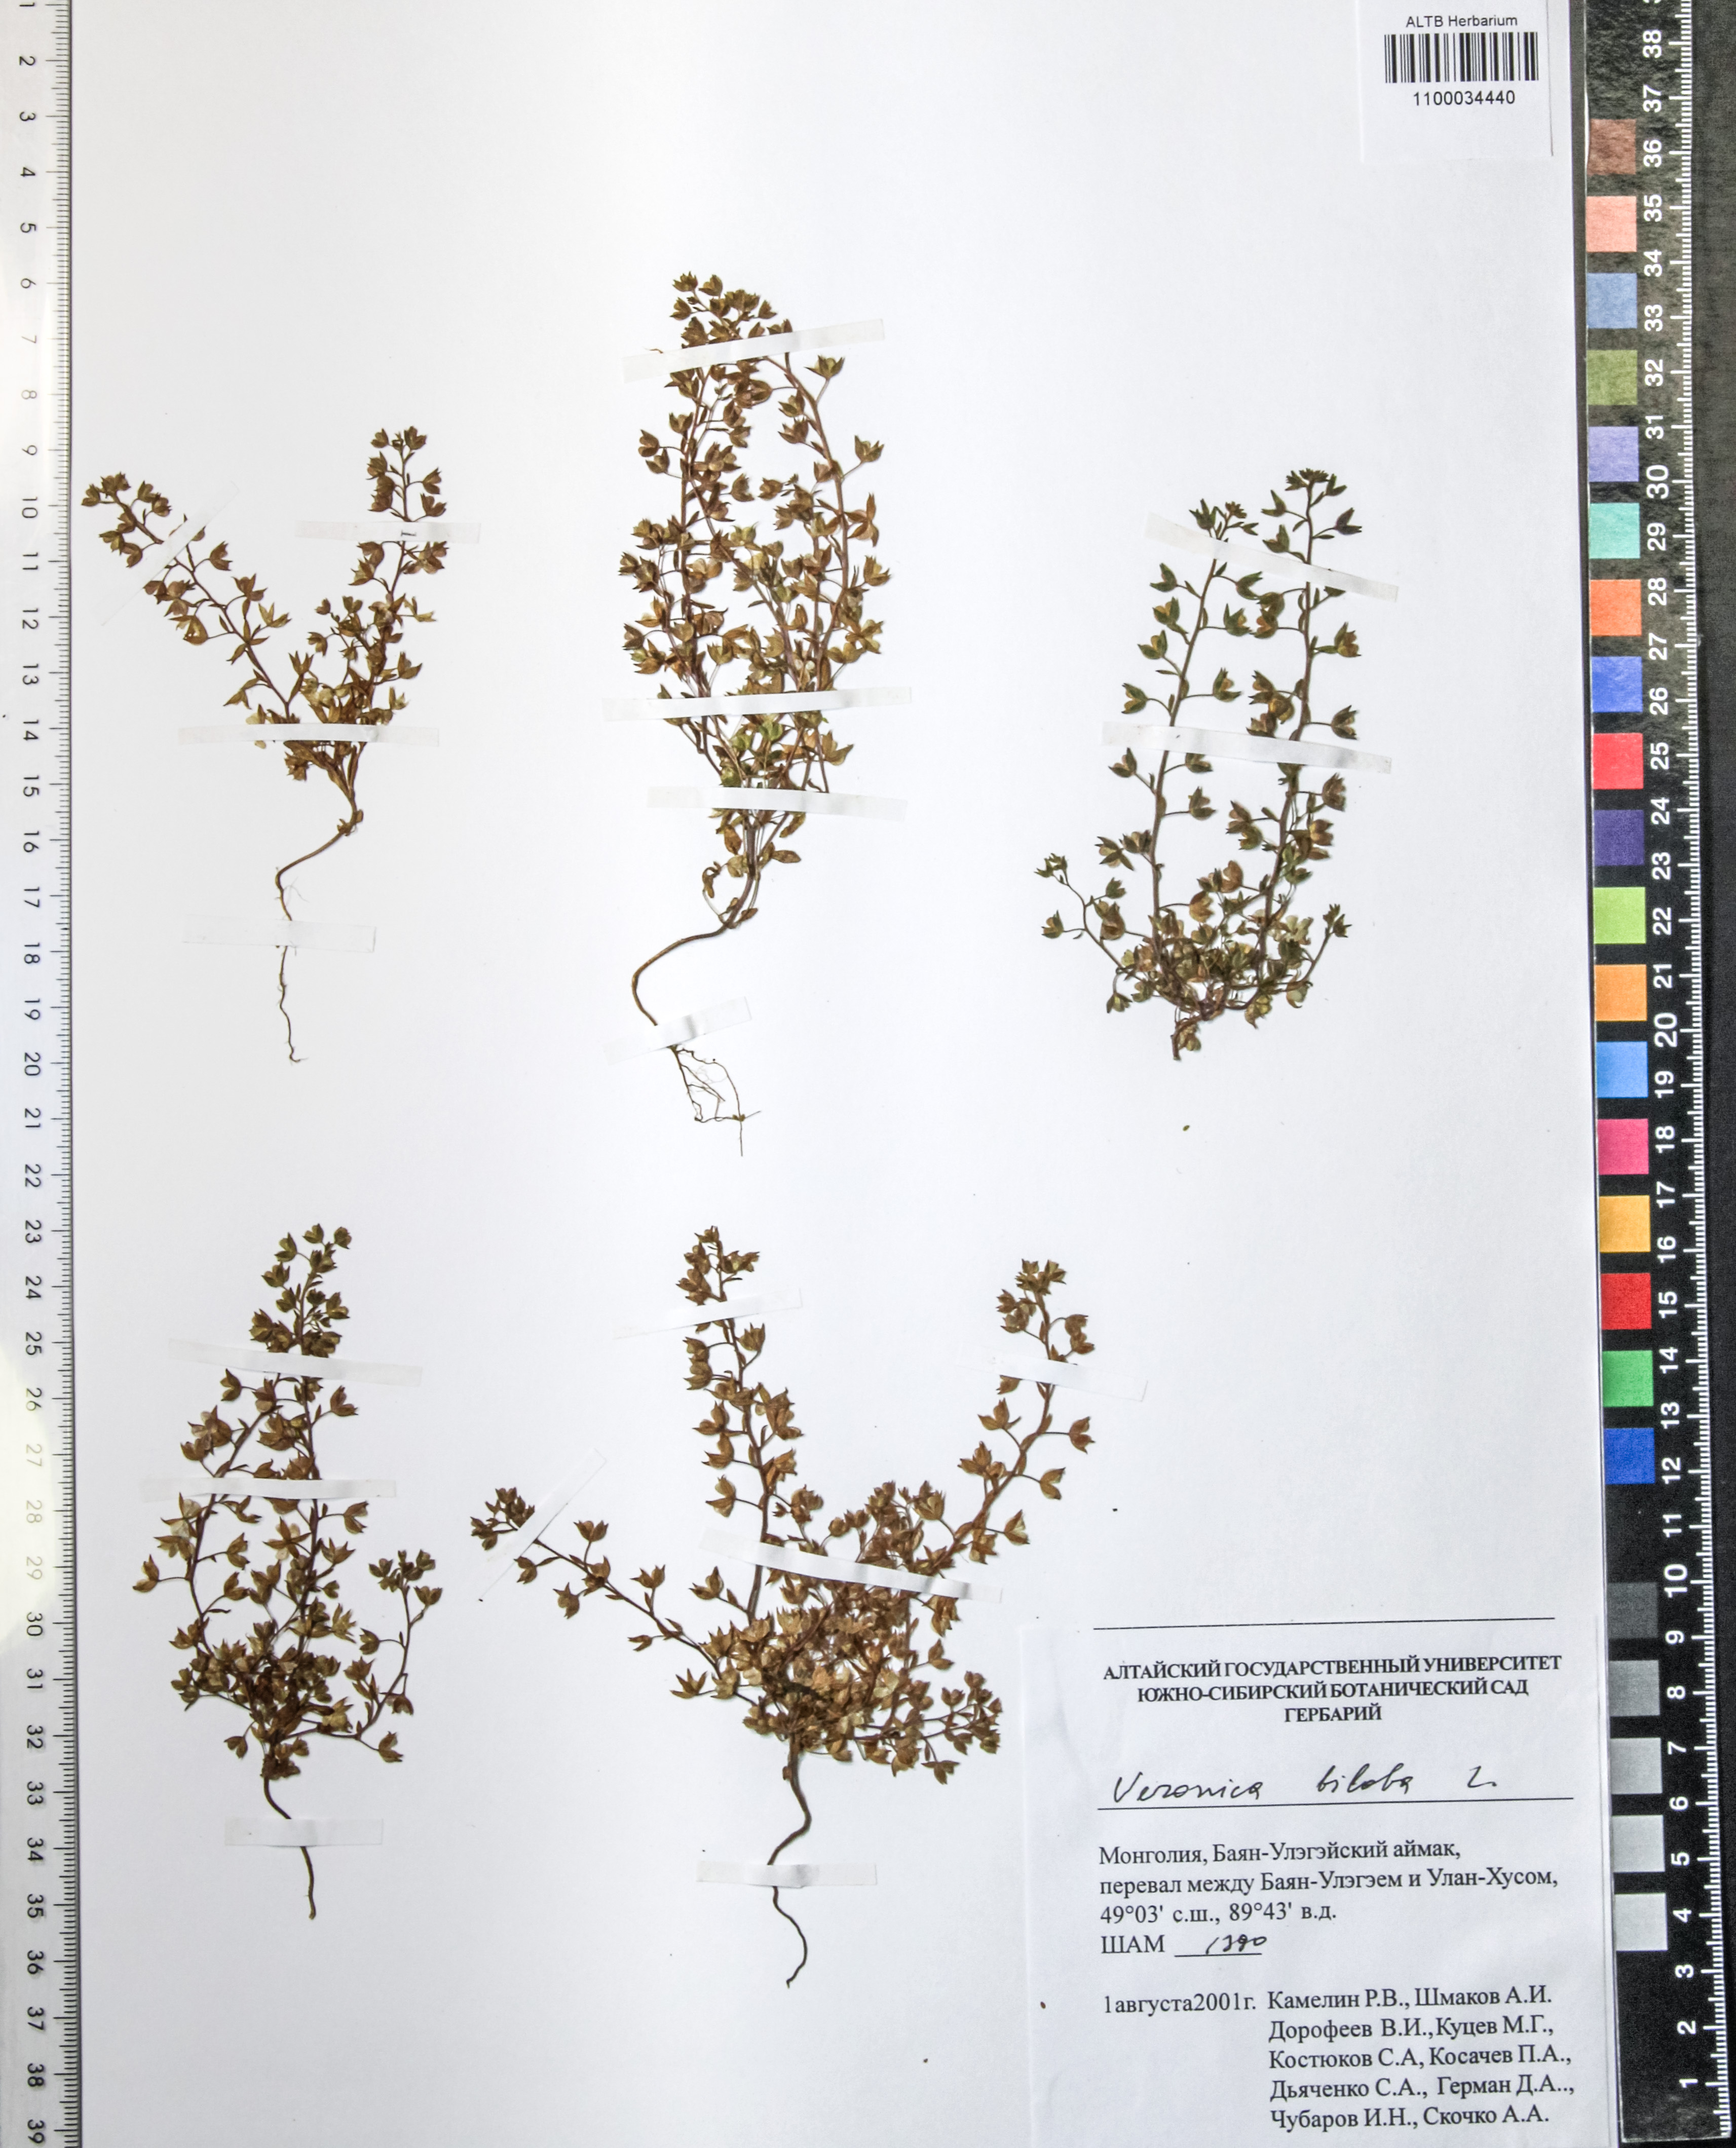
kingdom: Plantae
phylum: Tracheophyta
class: Magnoliopsida
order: Lamiales
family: Plantaginaceae
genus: Veronica
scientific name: Veronica biloba
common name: Twolobe speedwell
